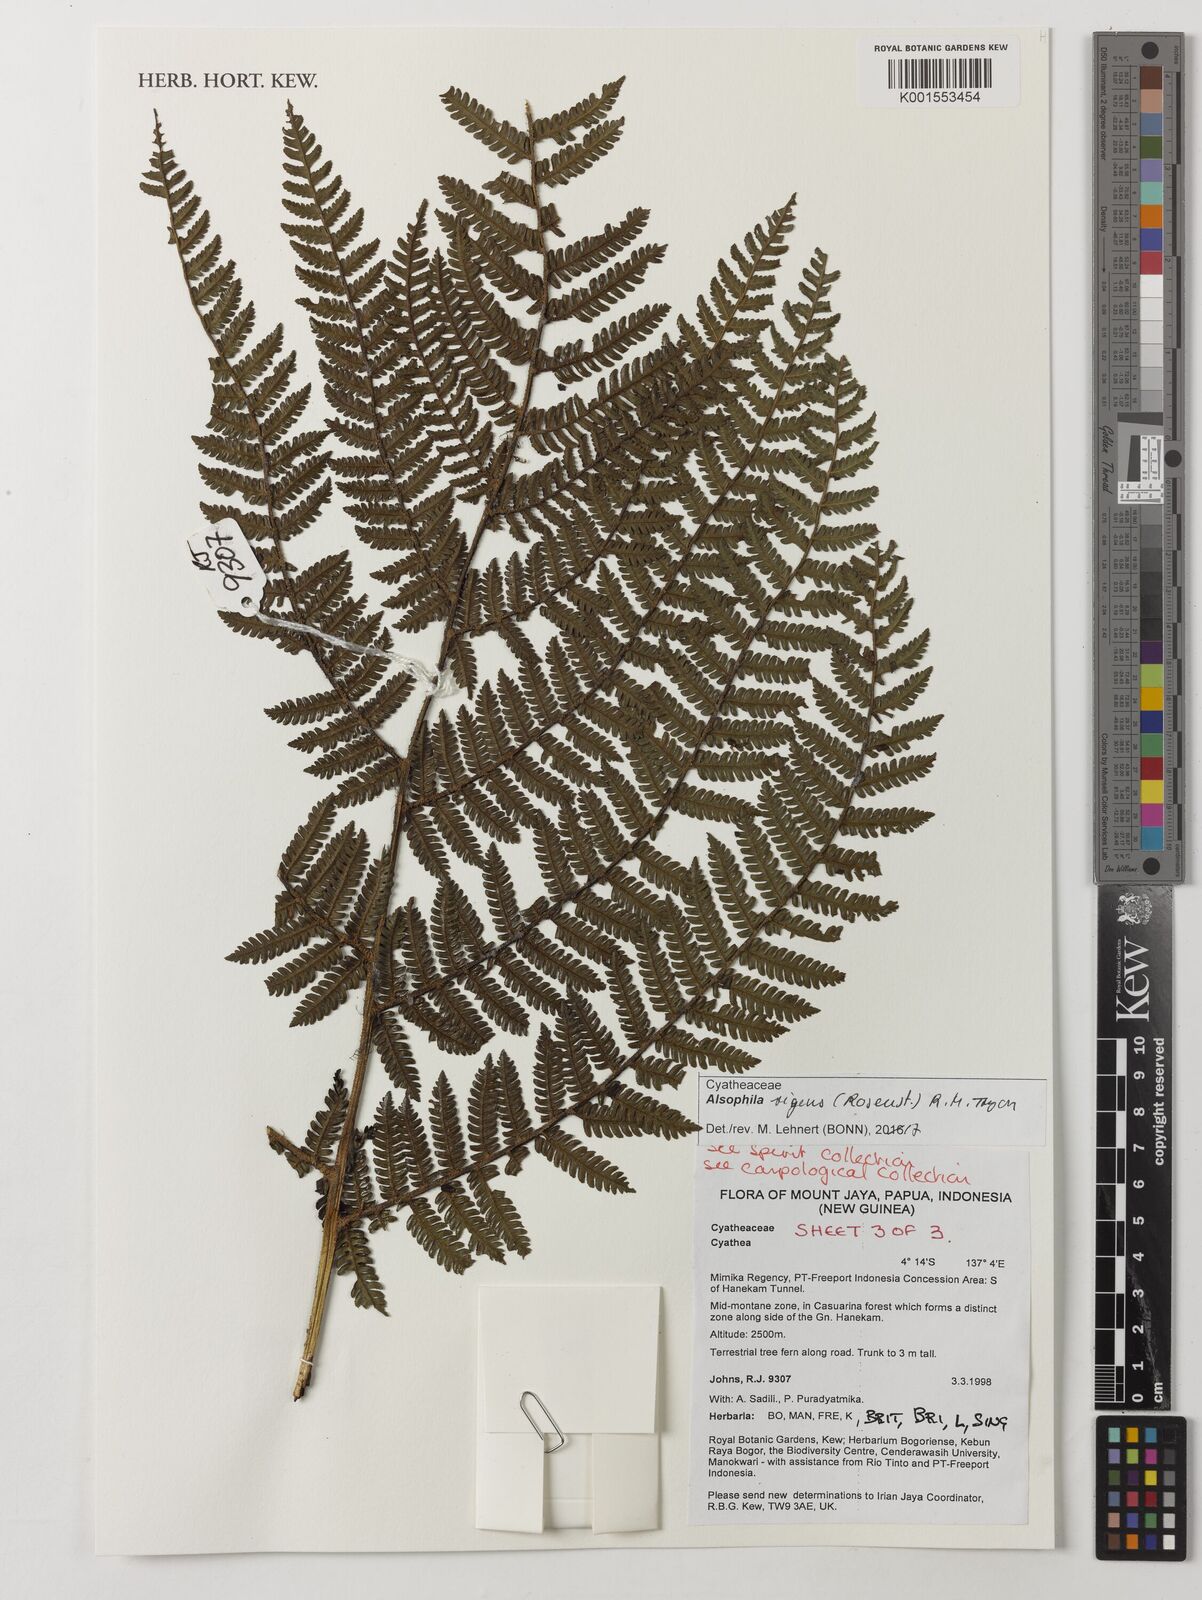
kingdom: Plantae
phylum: Tracheophyta
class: Polypodiopsida
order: Cyatheales
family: Cyatheaceae
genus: Alsophila
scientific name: Alsophila rigens
